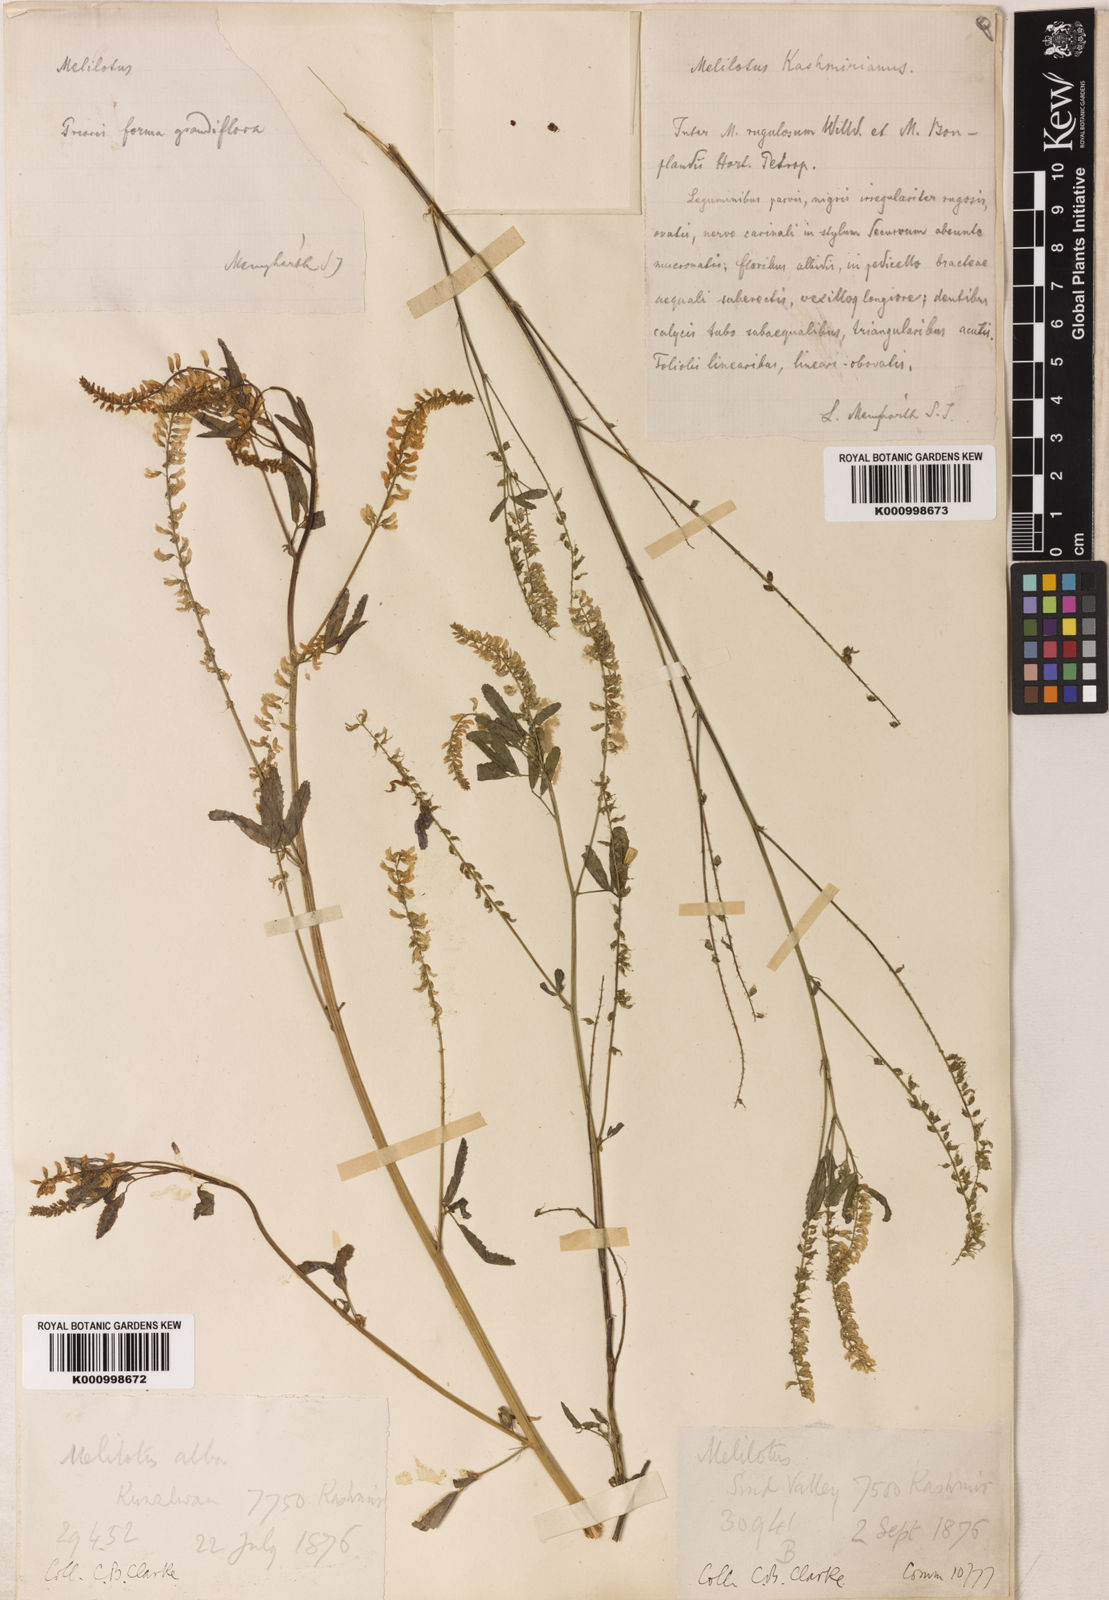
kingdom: Plantae
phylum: Tracheophyta
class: Magnoliopsida
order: Fabales
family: Fabaceae
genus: Melilotus
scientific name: Melilotus
